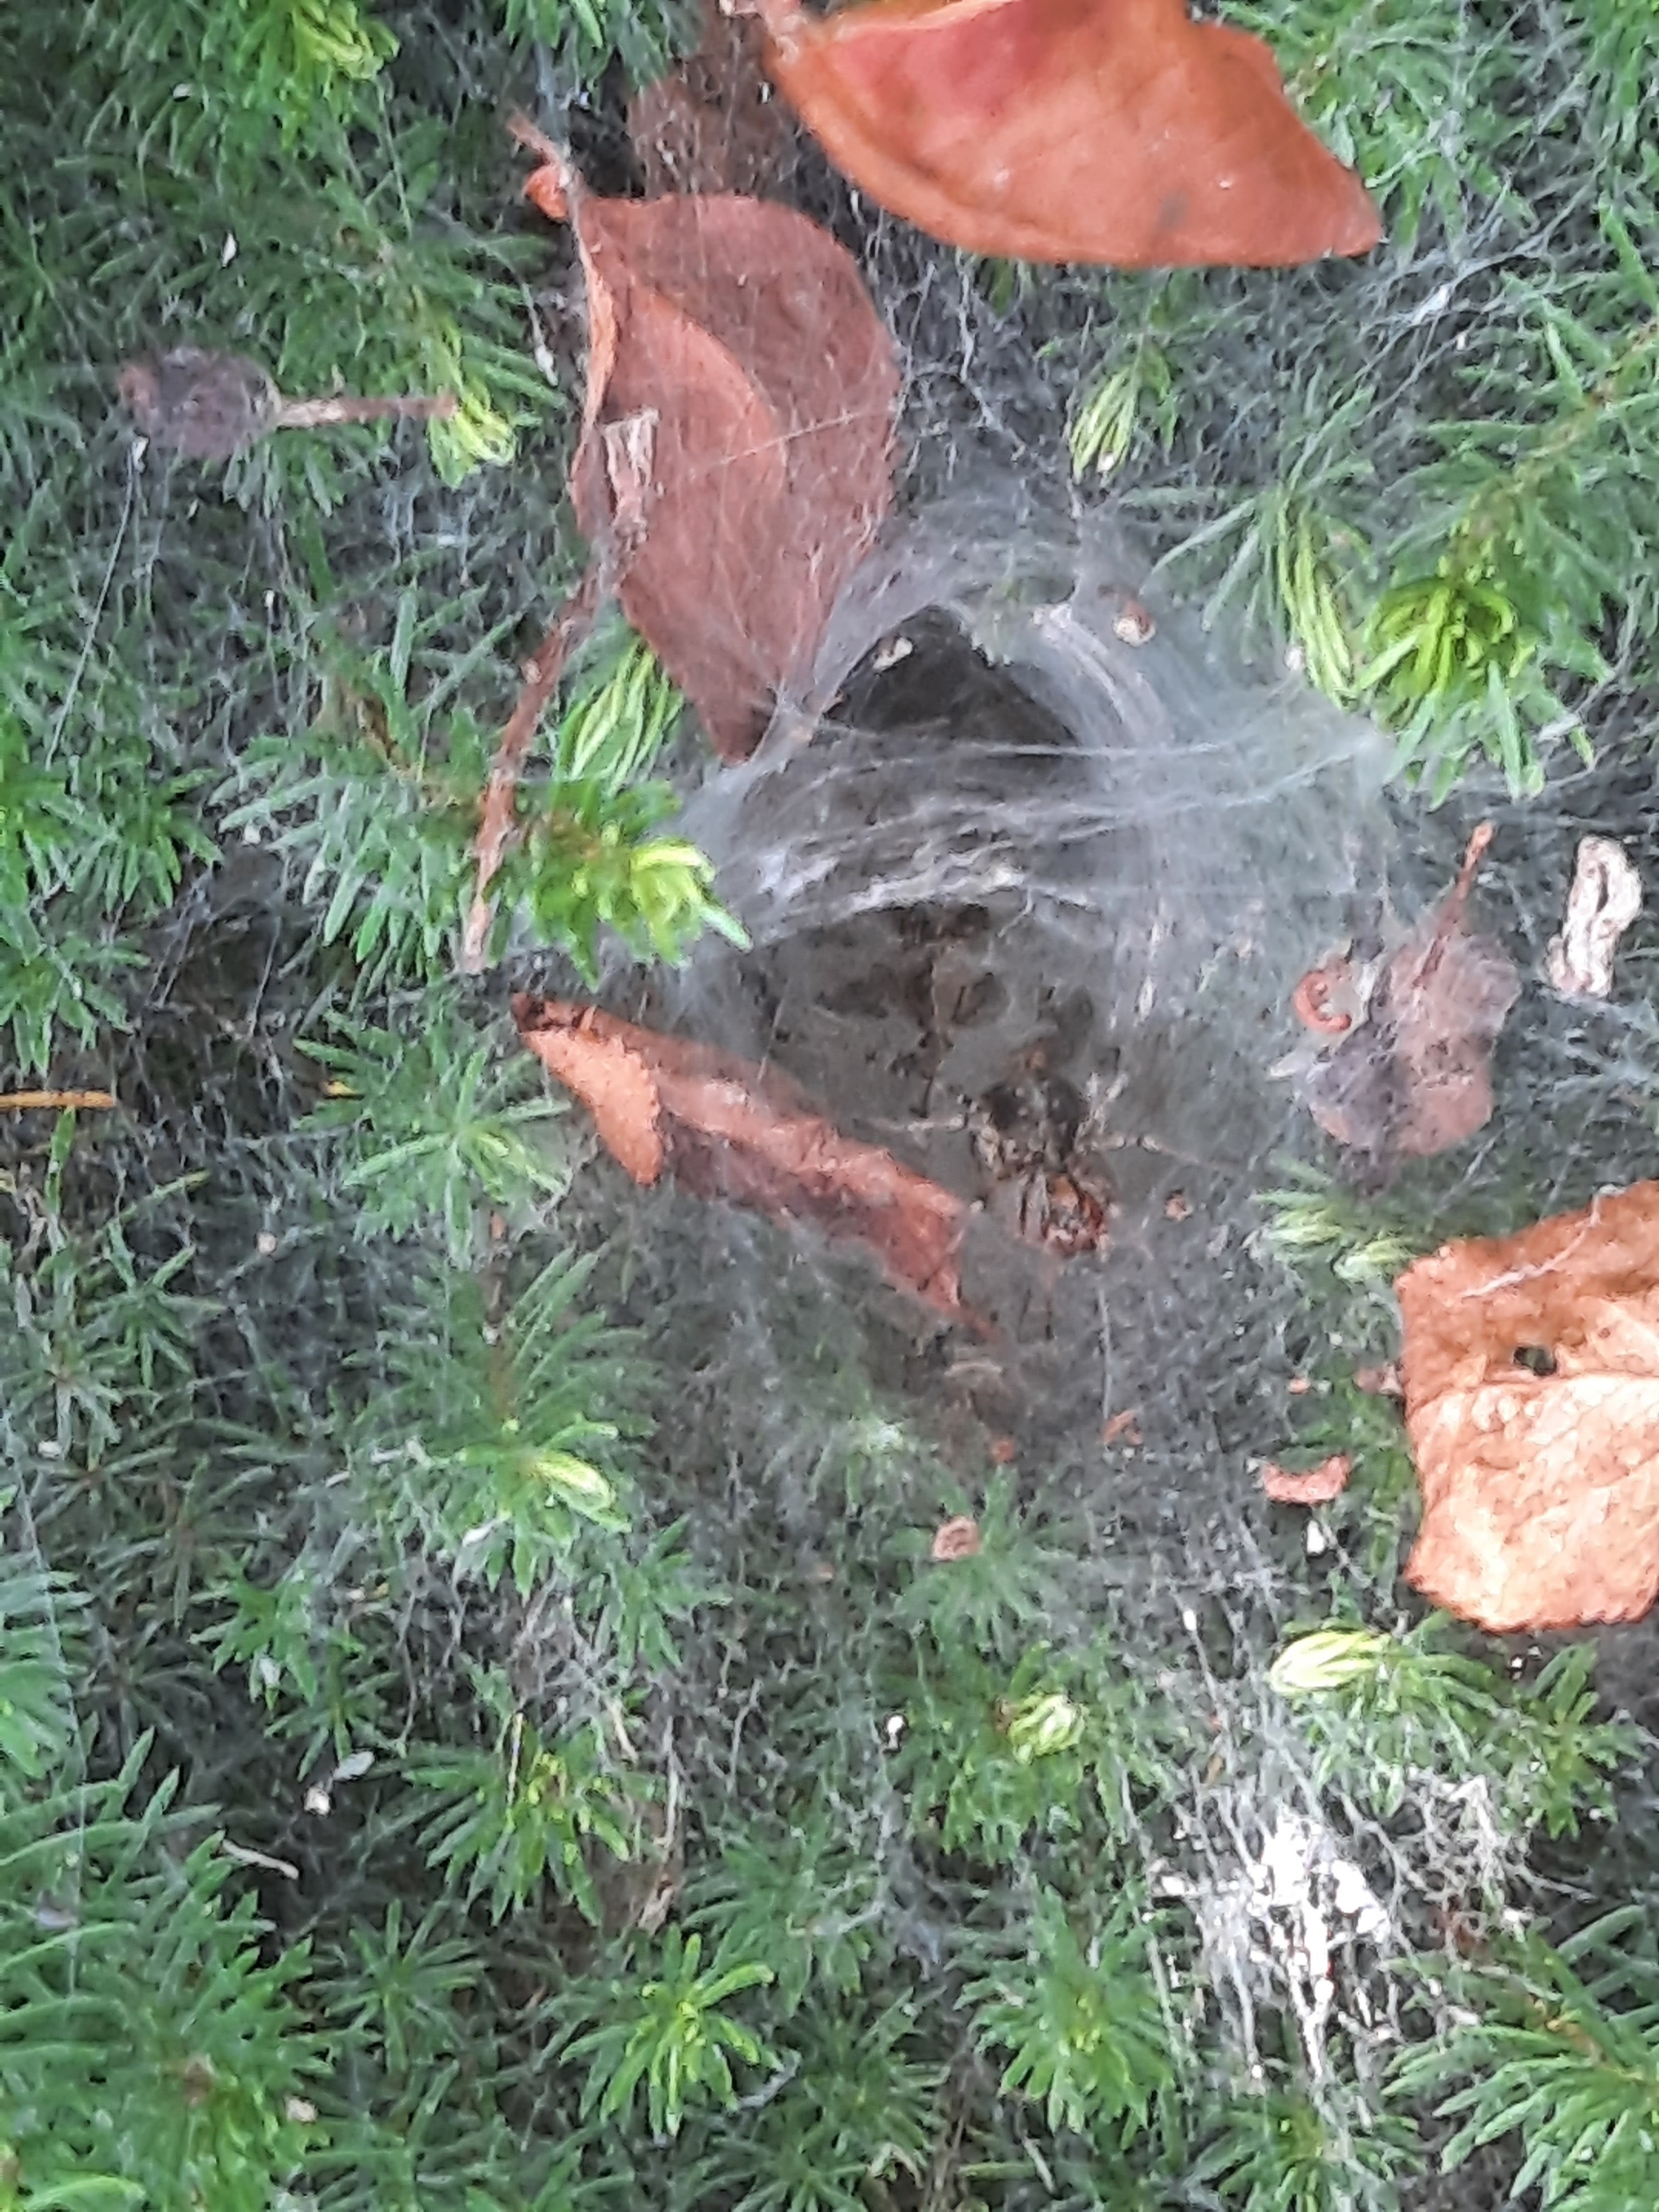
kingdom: Animalia
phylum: Arthropoda
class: Arachnida
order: Araneae
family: Agelenidae
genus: Agelena
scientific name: Agelena labyrinthica
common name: Labyrintedderkop
